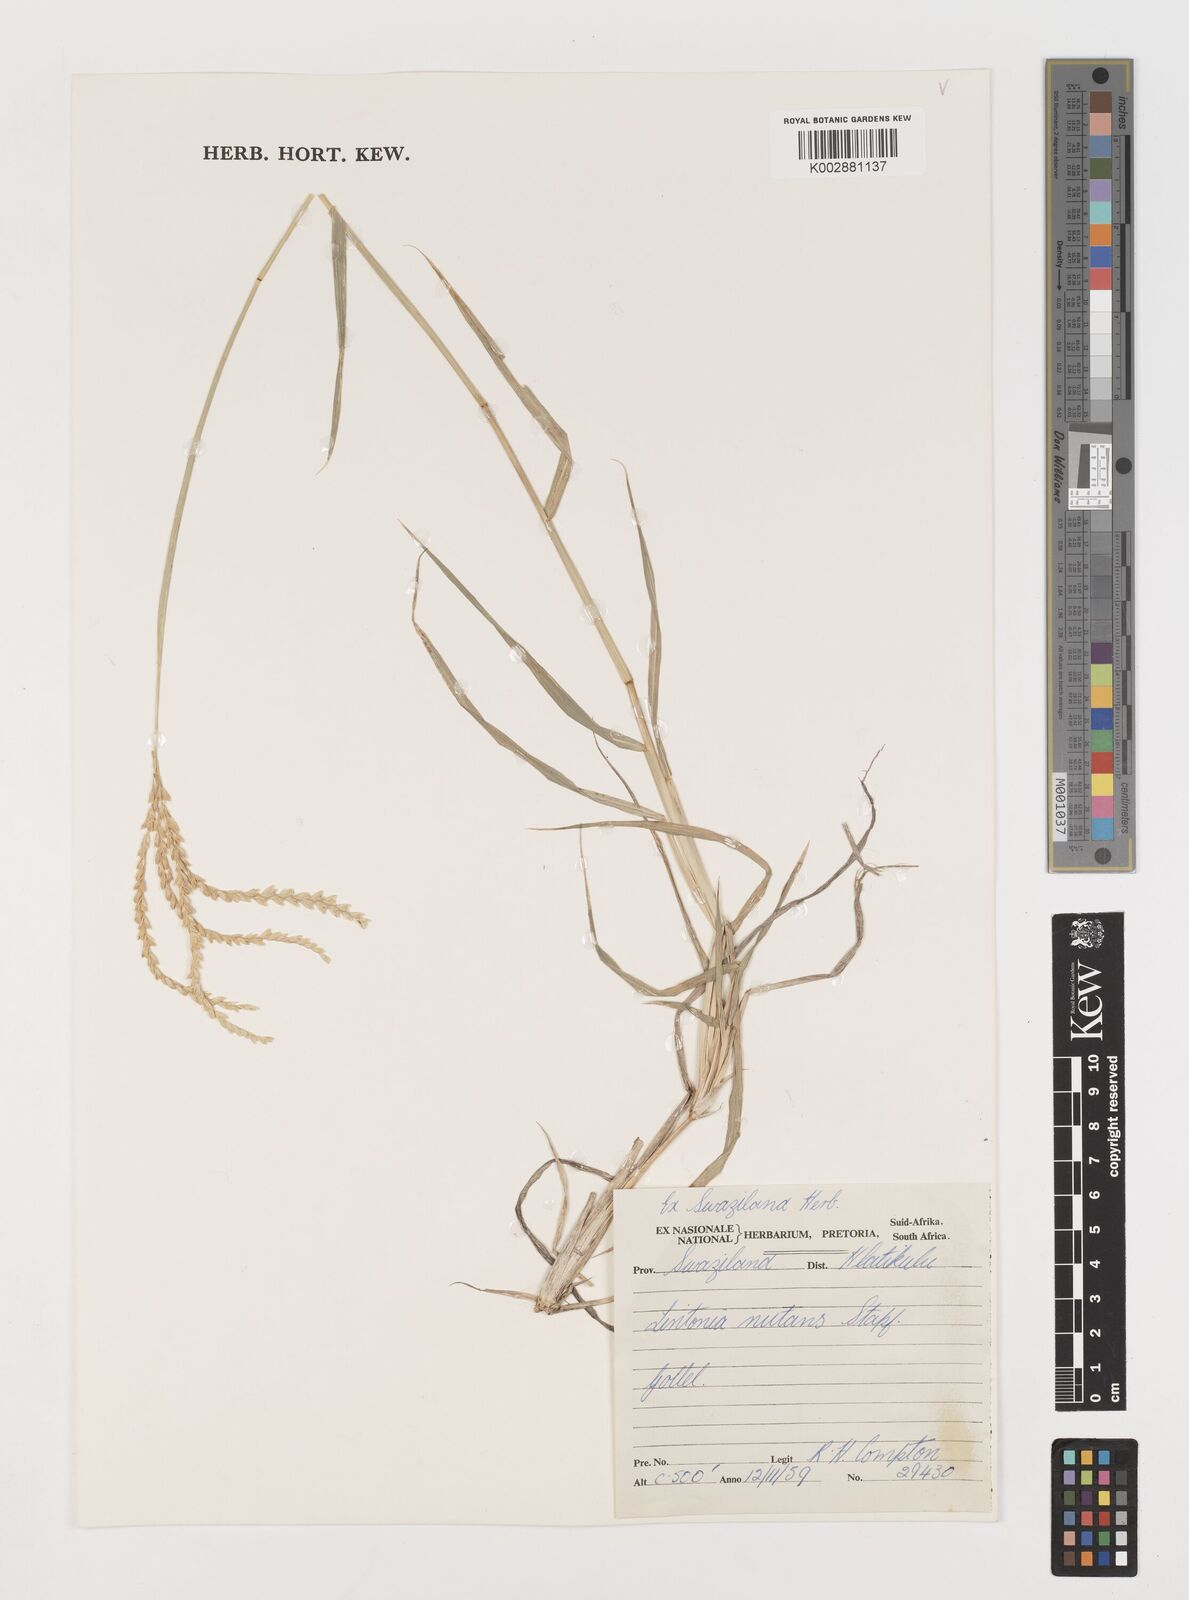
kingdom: Plantae
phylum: Tracheophyta
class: Liliopsida
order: Poales
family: Poaceae
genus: Chloris
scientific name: Chloris nutans
